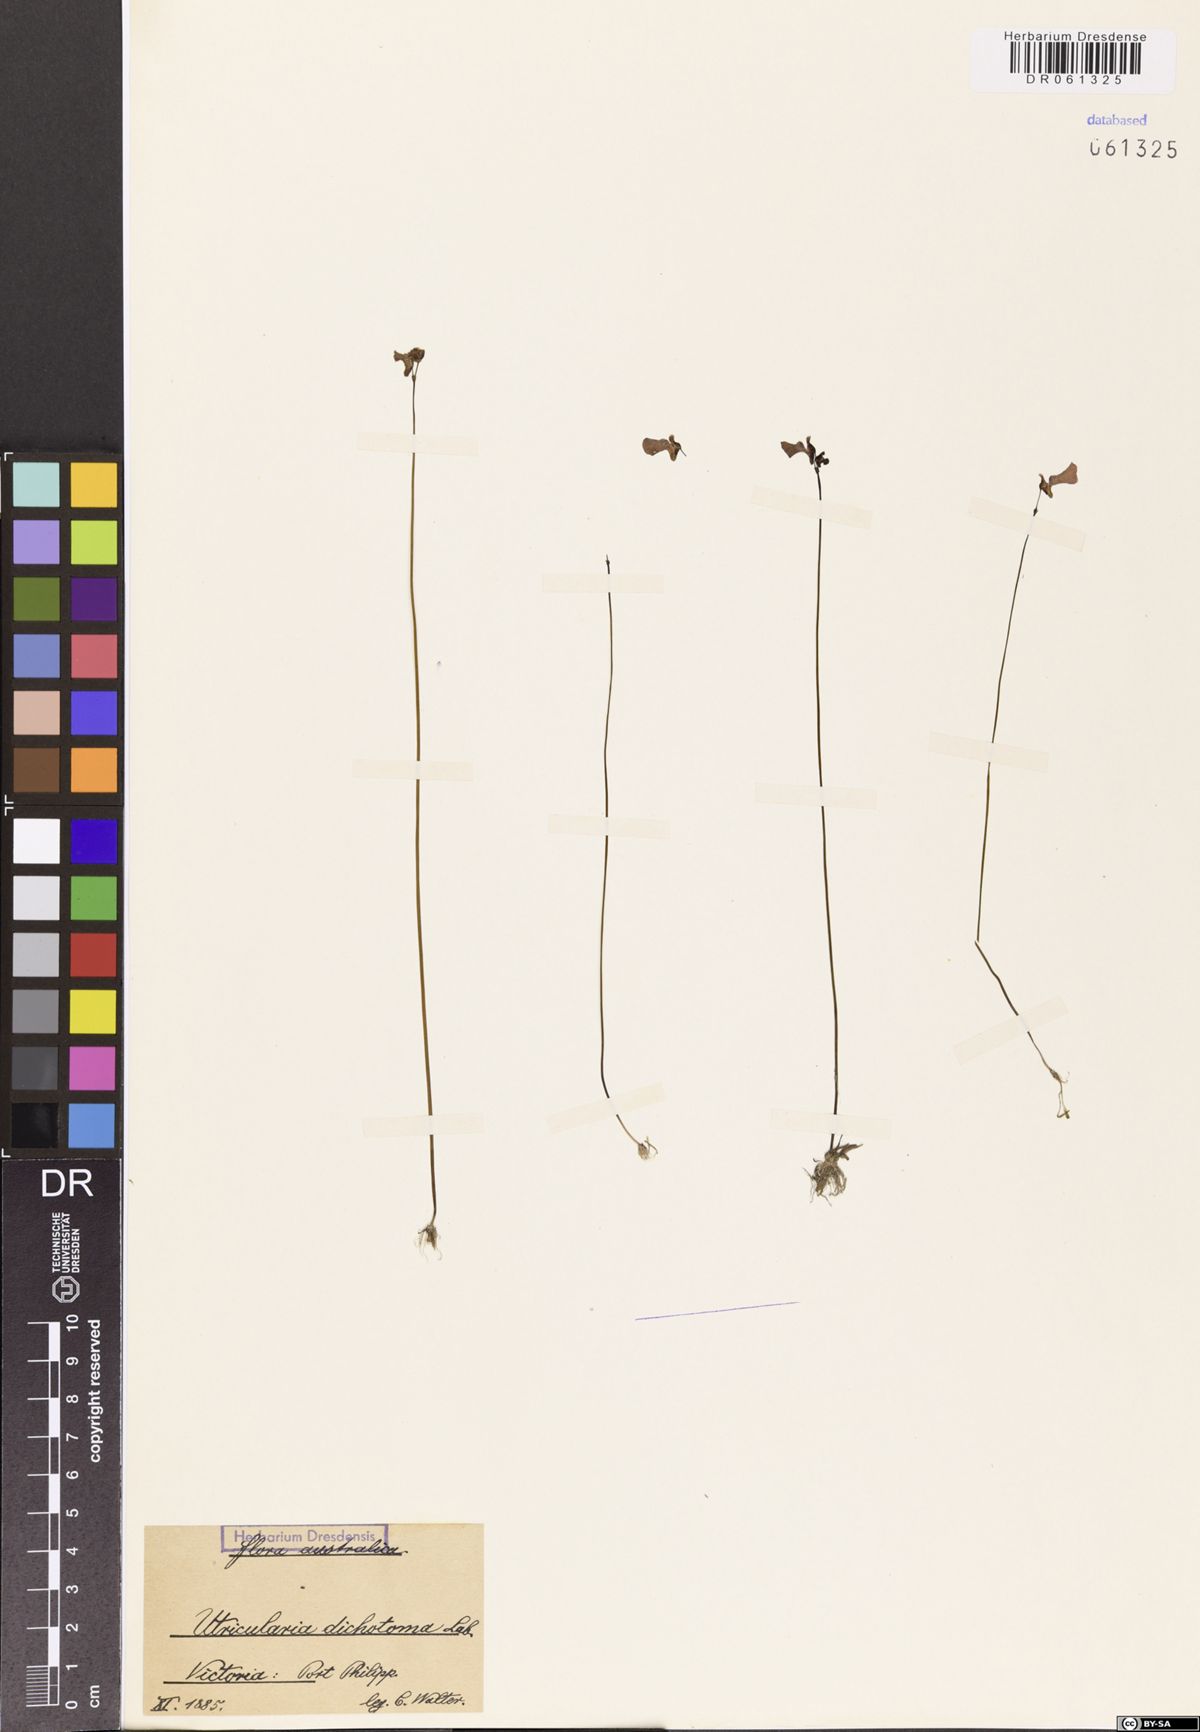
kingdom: Plantae
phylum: Tracheophyta
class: Magnoliopsida
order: Lamiales
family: Lentibulariaceae
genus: Utricularia
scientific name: Utricularia dichotoma
